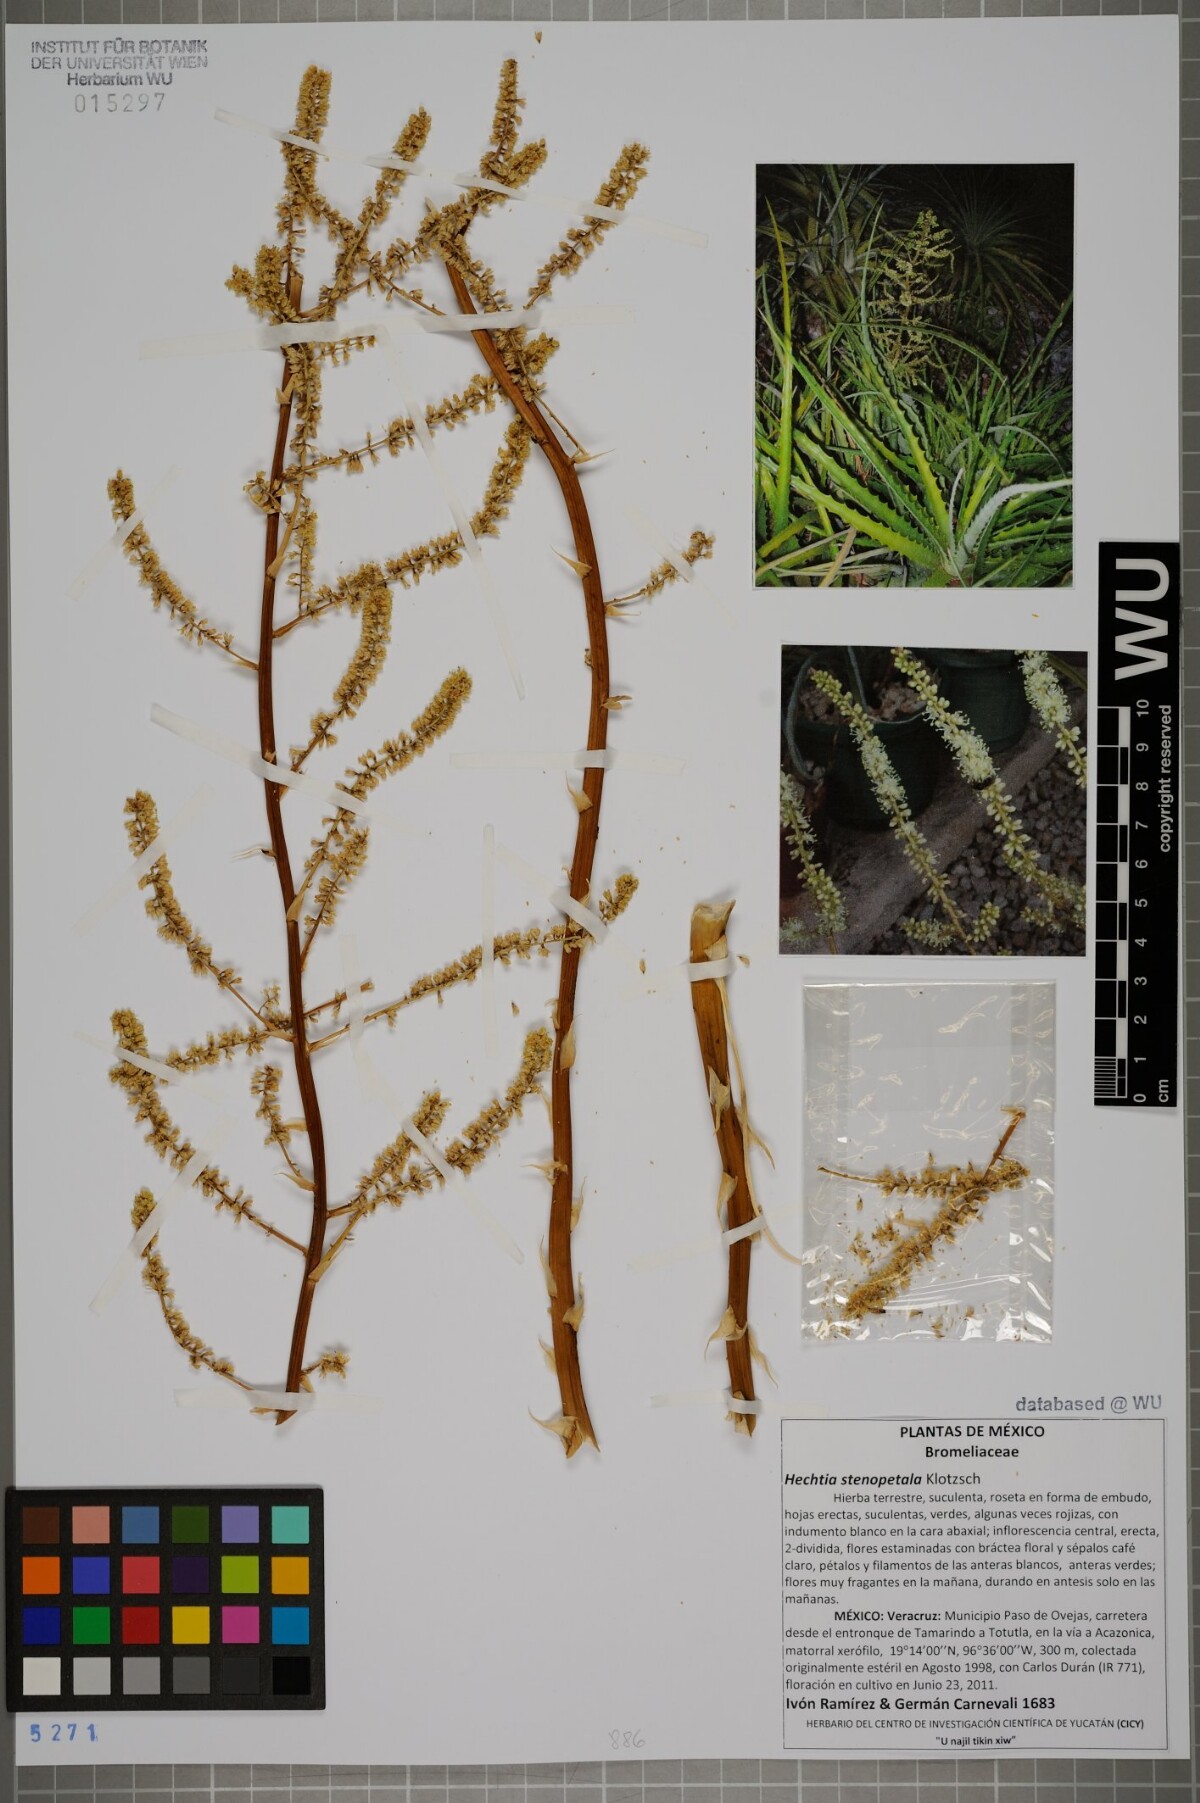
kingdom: Plantae
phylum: Tracheophyta
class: Liliopsida
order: Poales
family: Bromeliaceae
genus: Hechtia
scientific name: Hechtia stenopetala
